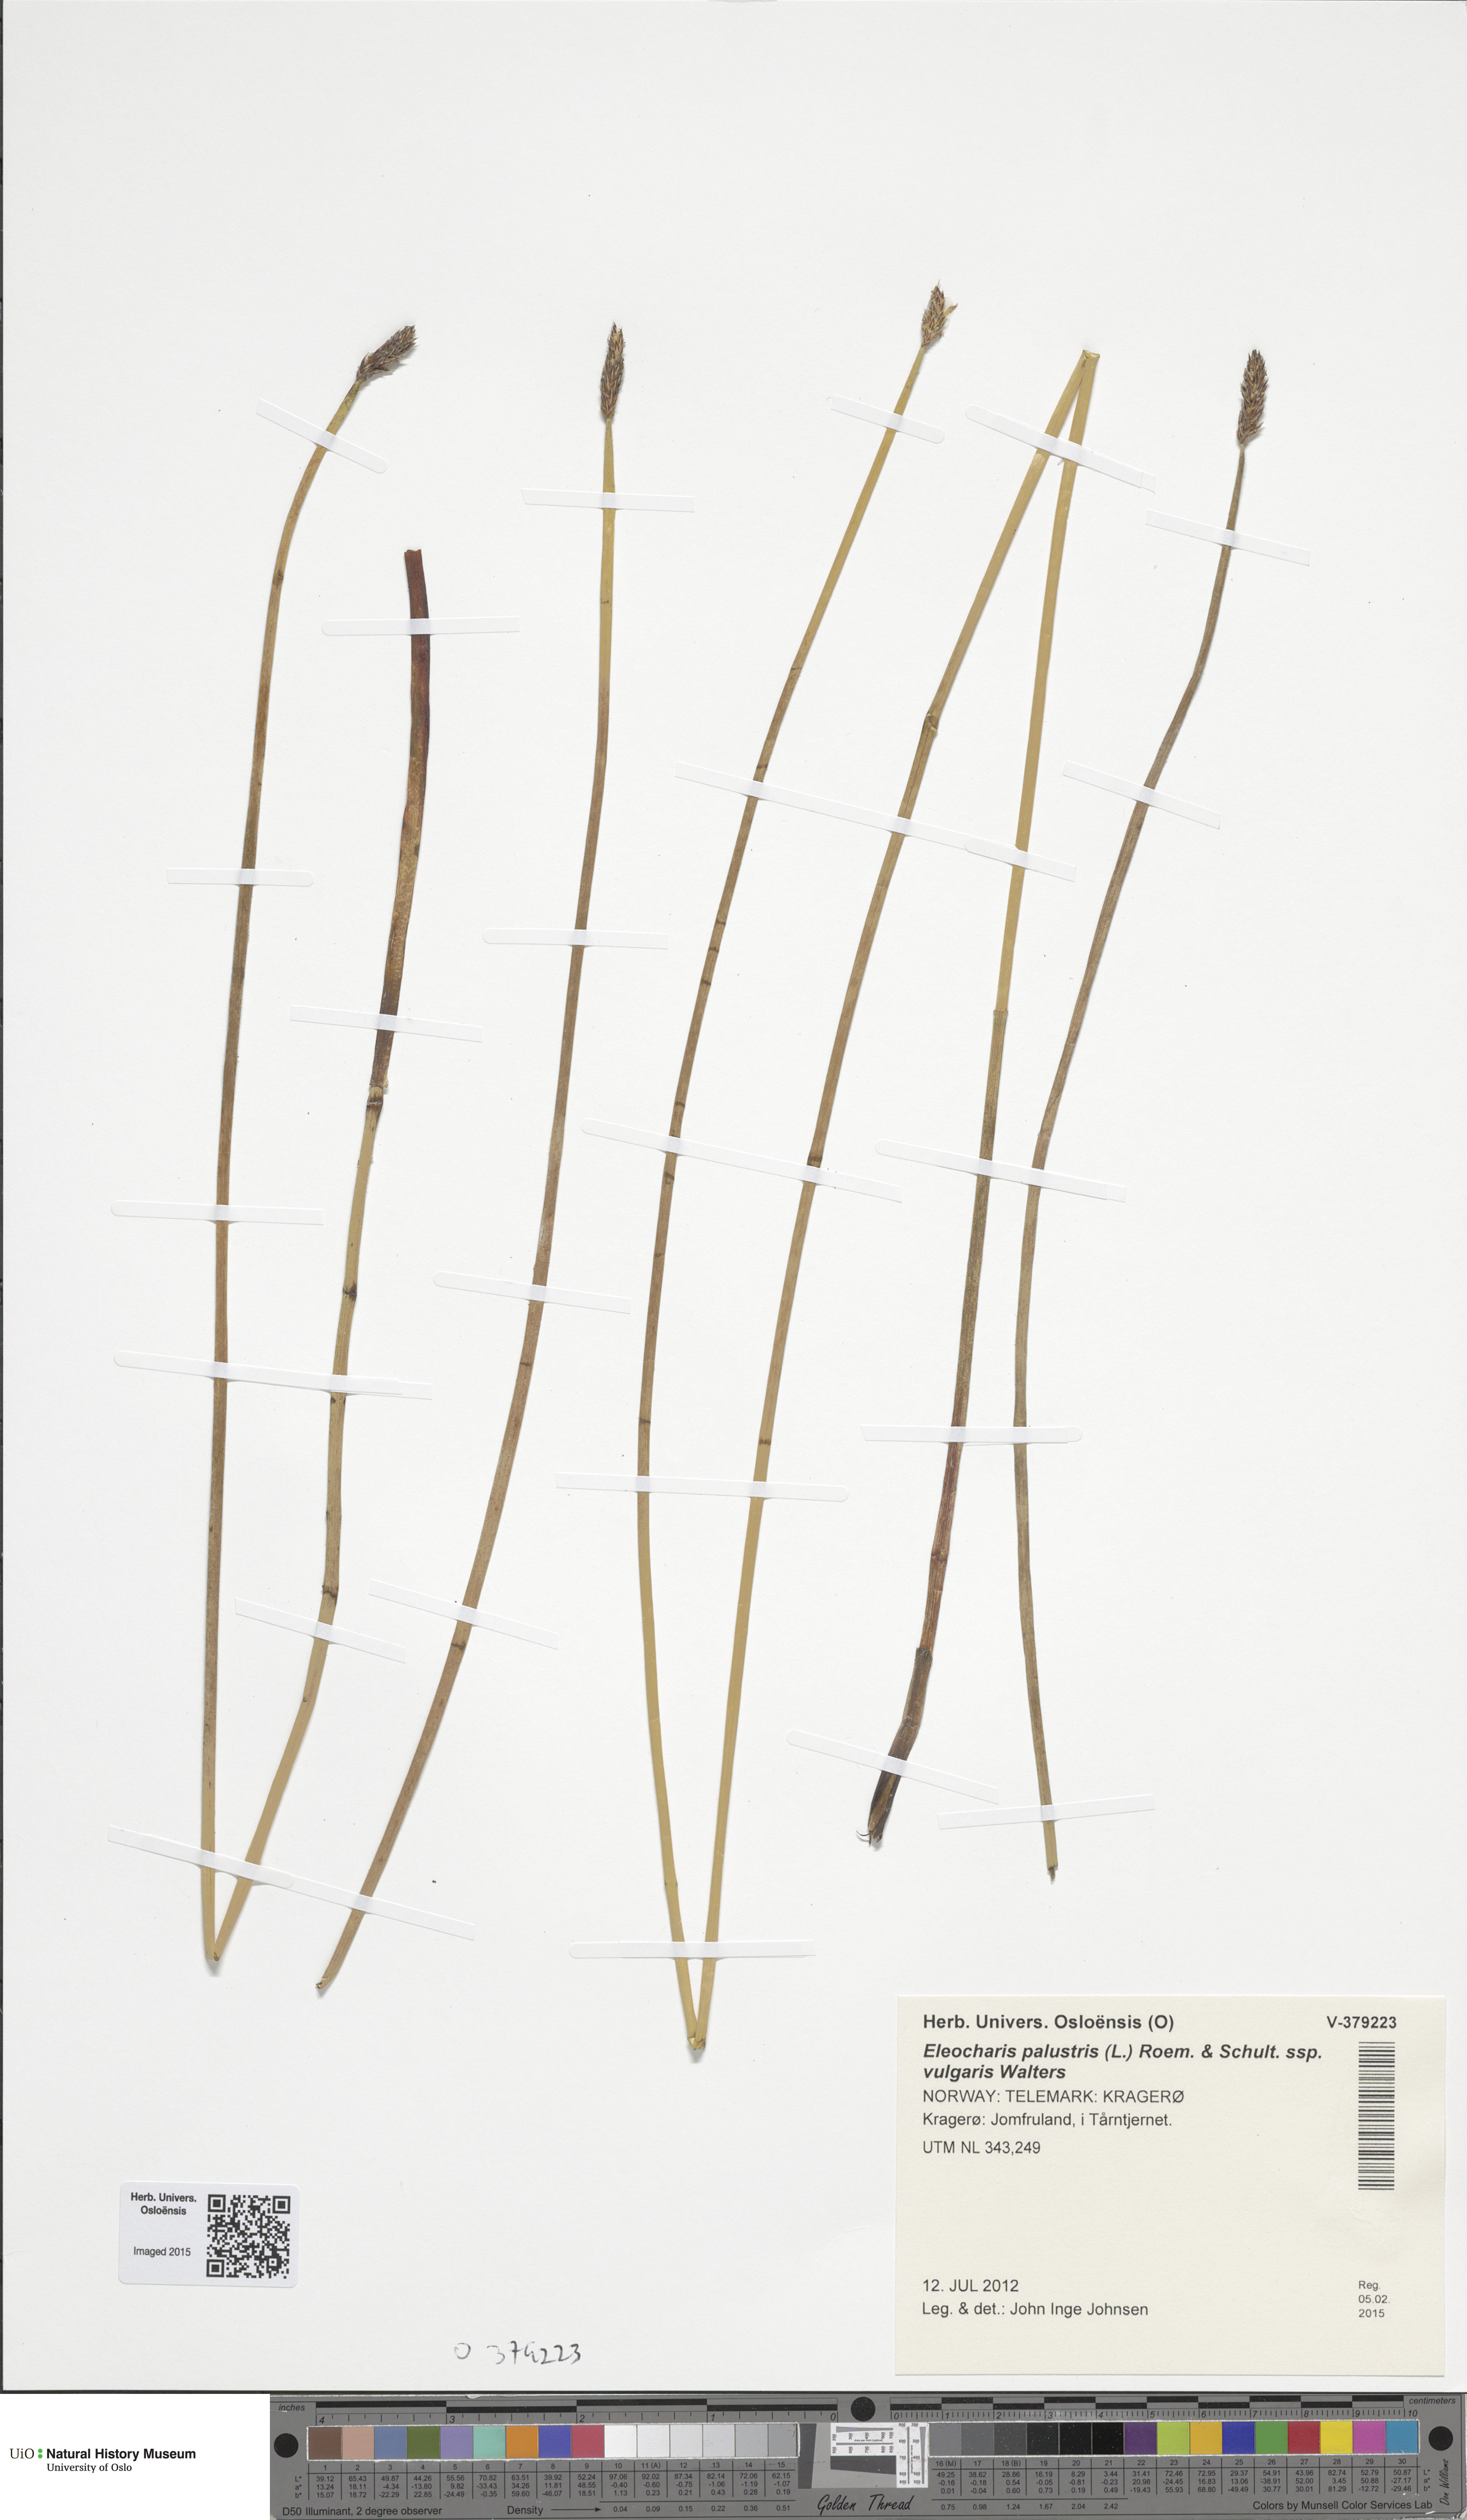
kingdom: Plantae
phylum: Tracheophyta
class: Liliopsida
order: Poales
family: Cyperaceae
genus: Eleocharis
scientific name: Eleocharis palustris
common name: Common spike-rush
